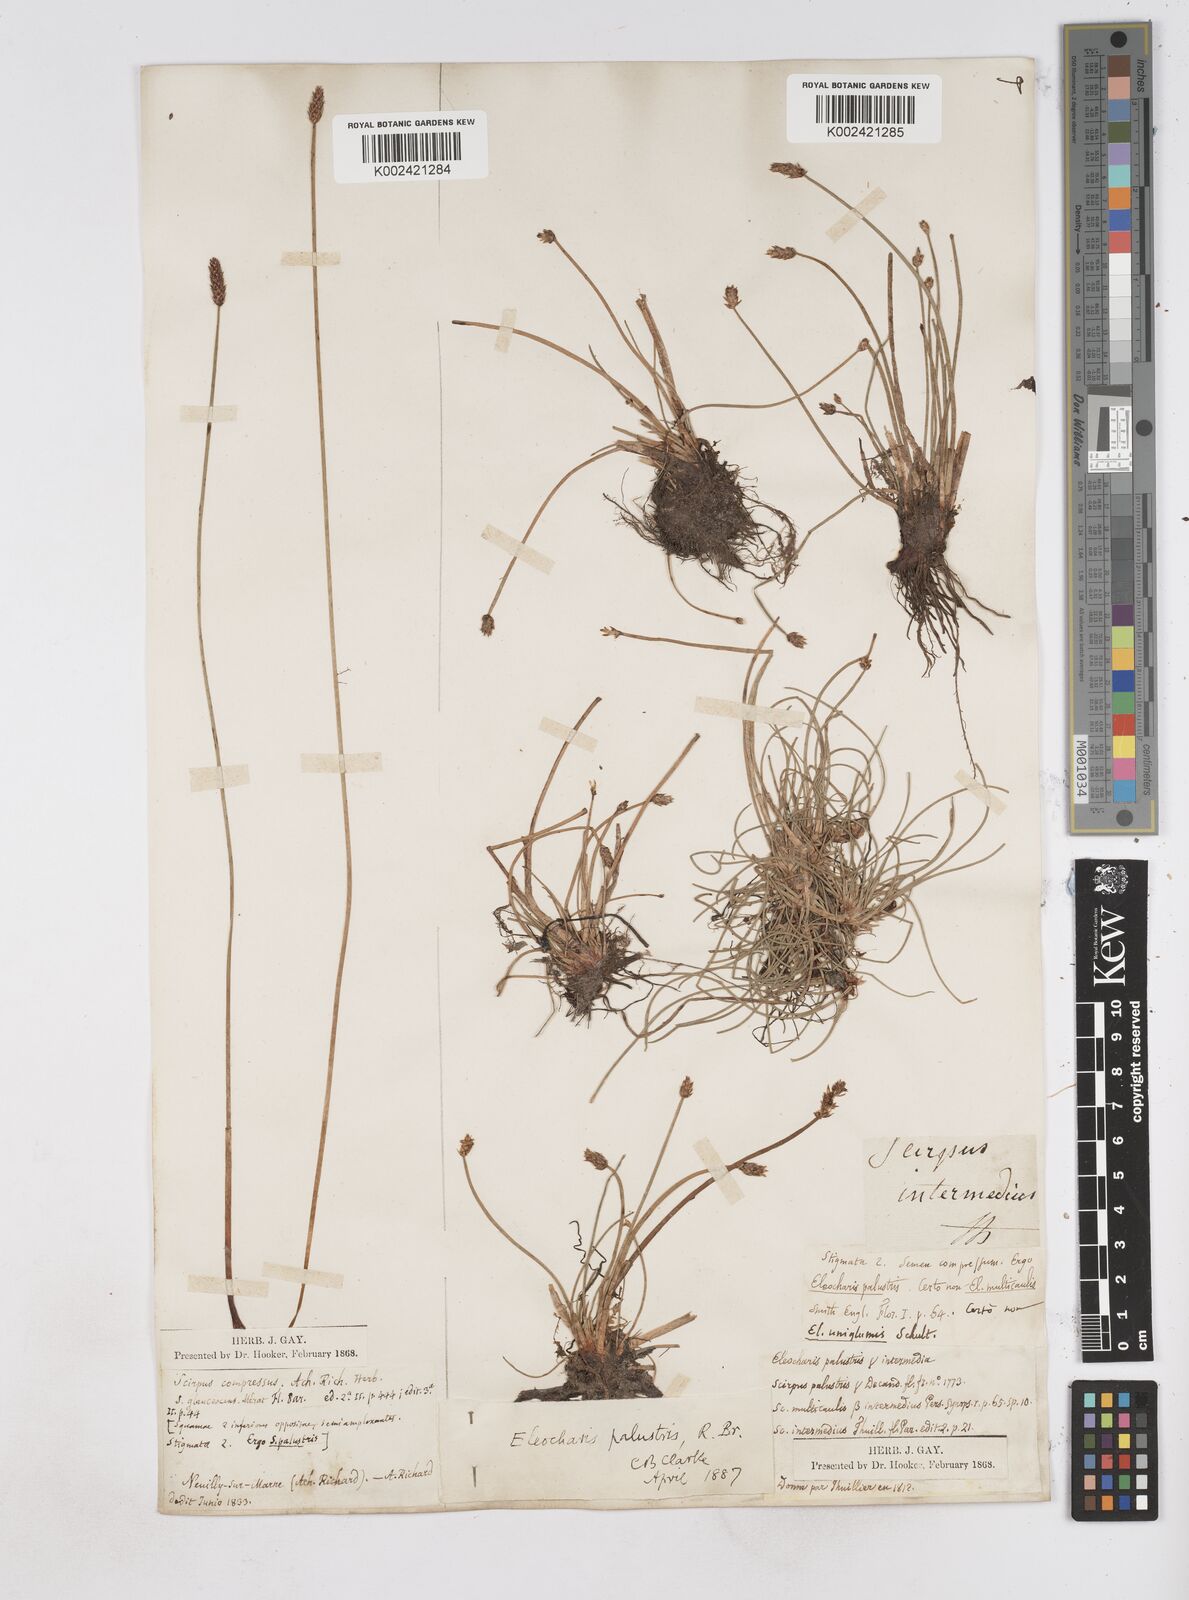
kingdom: Plantae
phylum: Tracheophyta
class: Liliopsida
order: Poales
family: Cyperaceae
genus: Eleocharis
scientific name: Eleocharis palustris
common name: Common spike-rush
